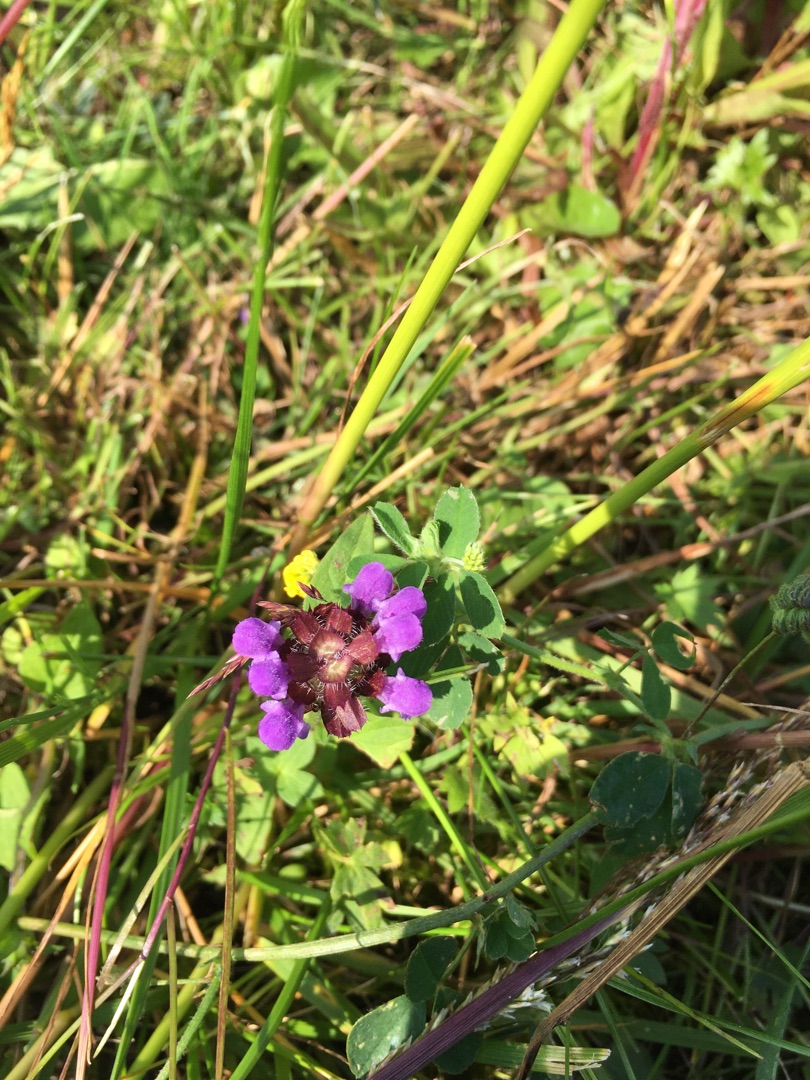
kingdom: Plantae
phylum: Tracheophyta
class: Magnoliopsida
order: Lamiales
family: Lamiaceae
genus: Prunella
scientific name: Prunella vulgaris
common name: Almindelig brunelle
